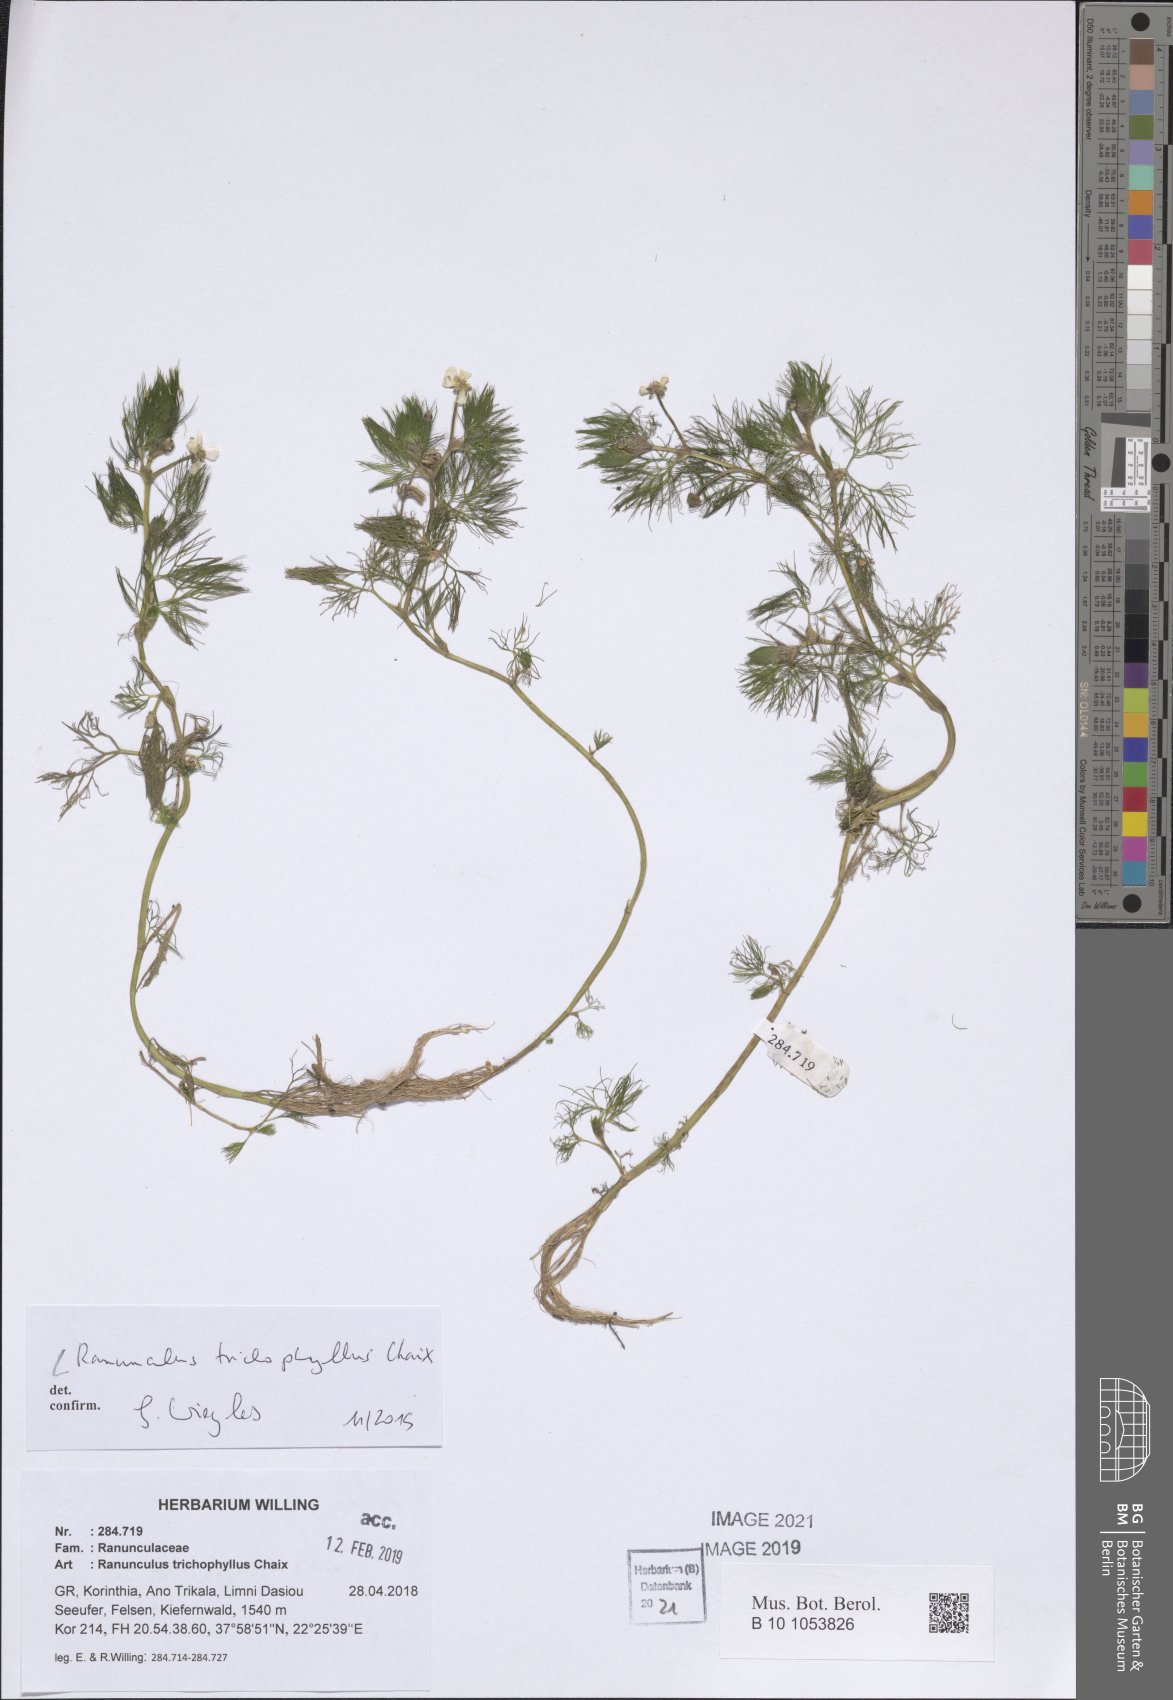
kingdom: Plantae
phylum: Tracheophyta
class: Magnoliopsida
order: Ranunculales
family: Ranunculaceae
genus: Ranunculus
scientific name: Ranunculus trichophyllus
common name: Thread-leaved water-crowfoot
